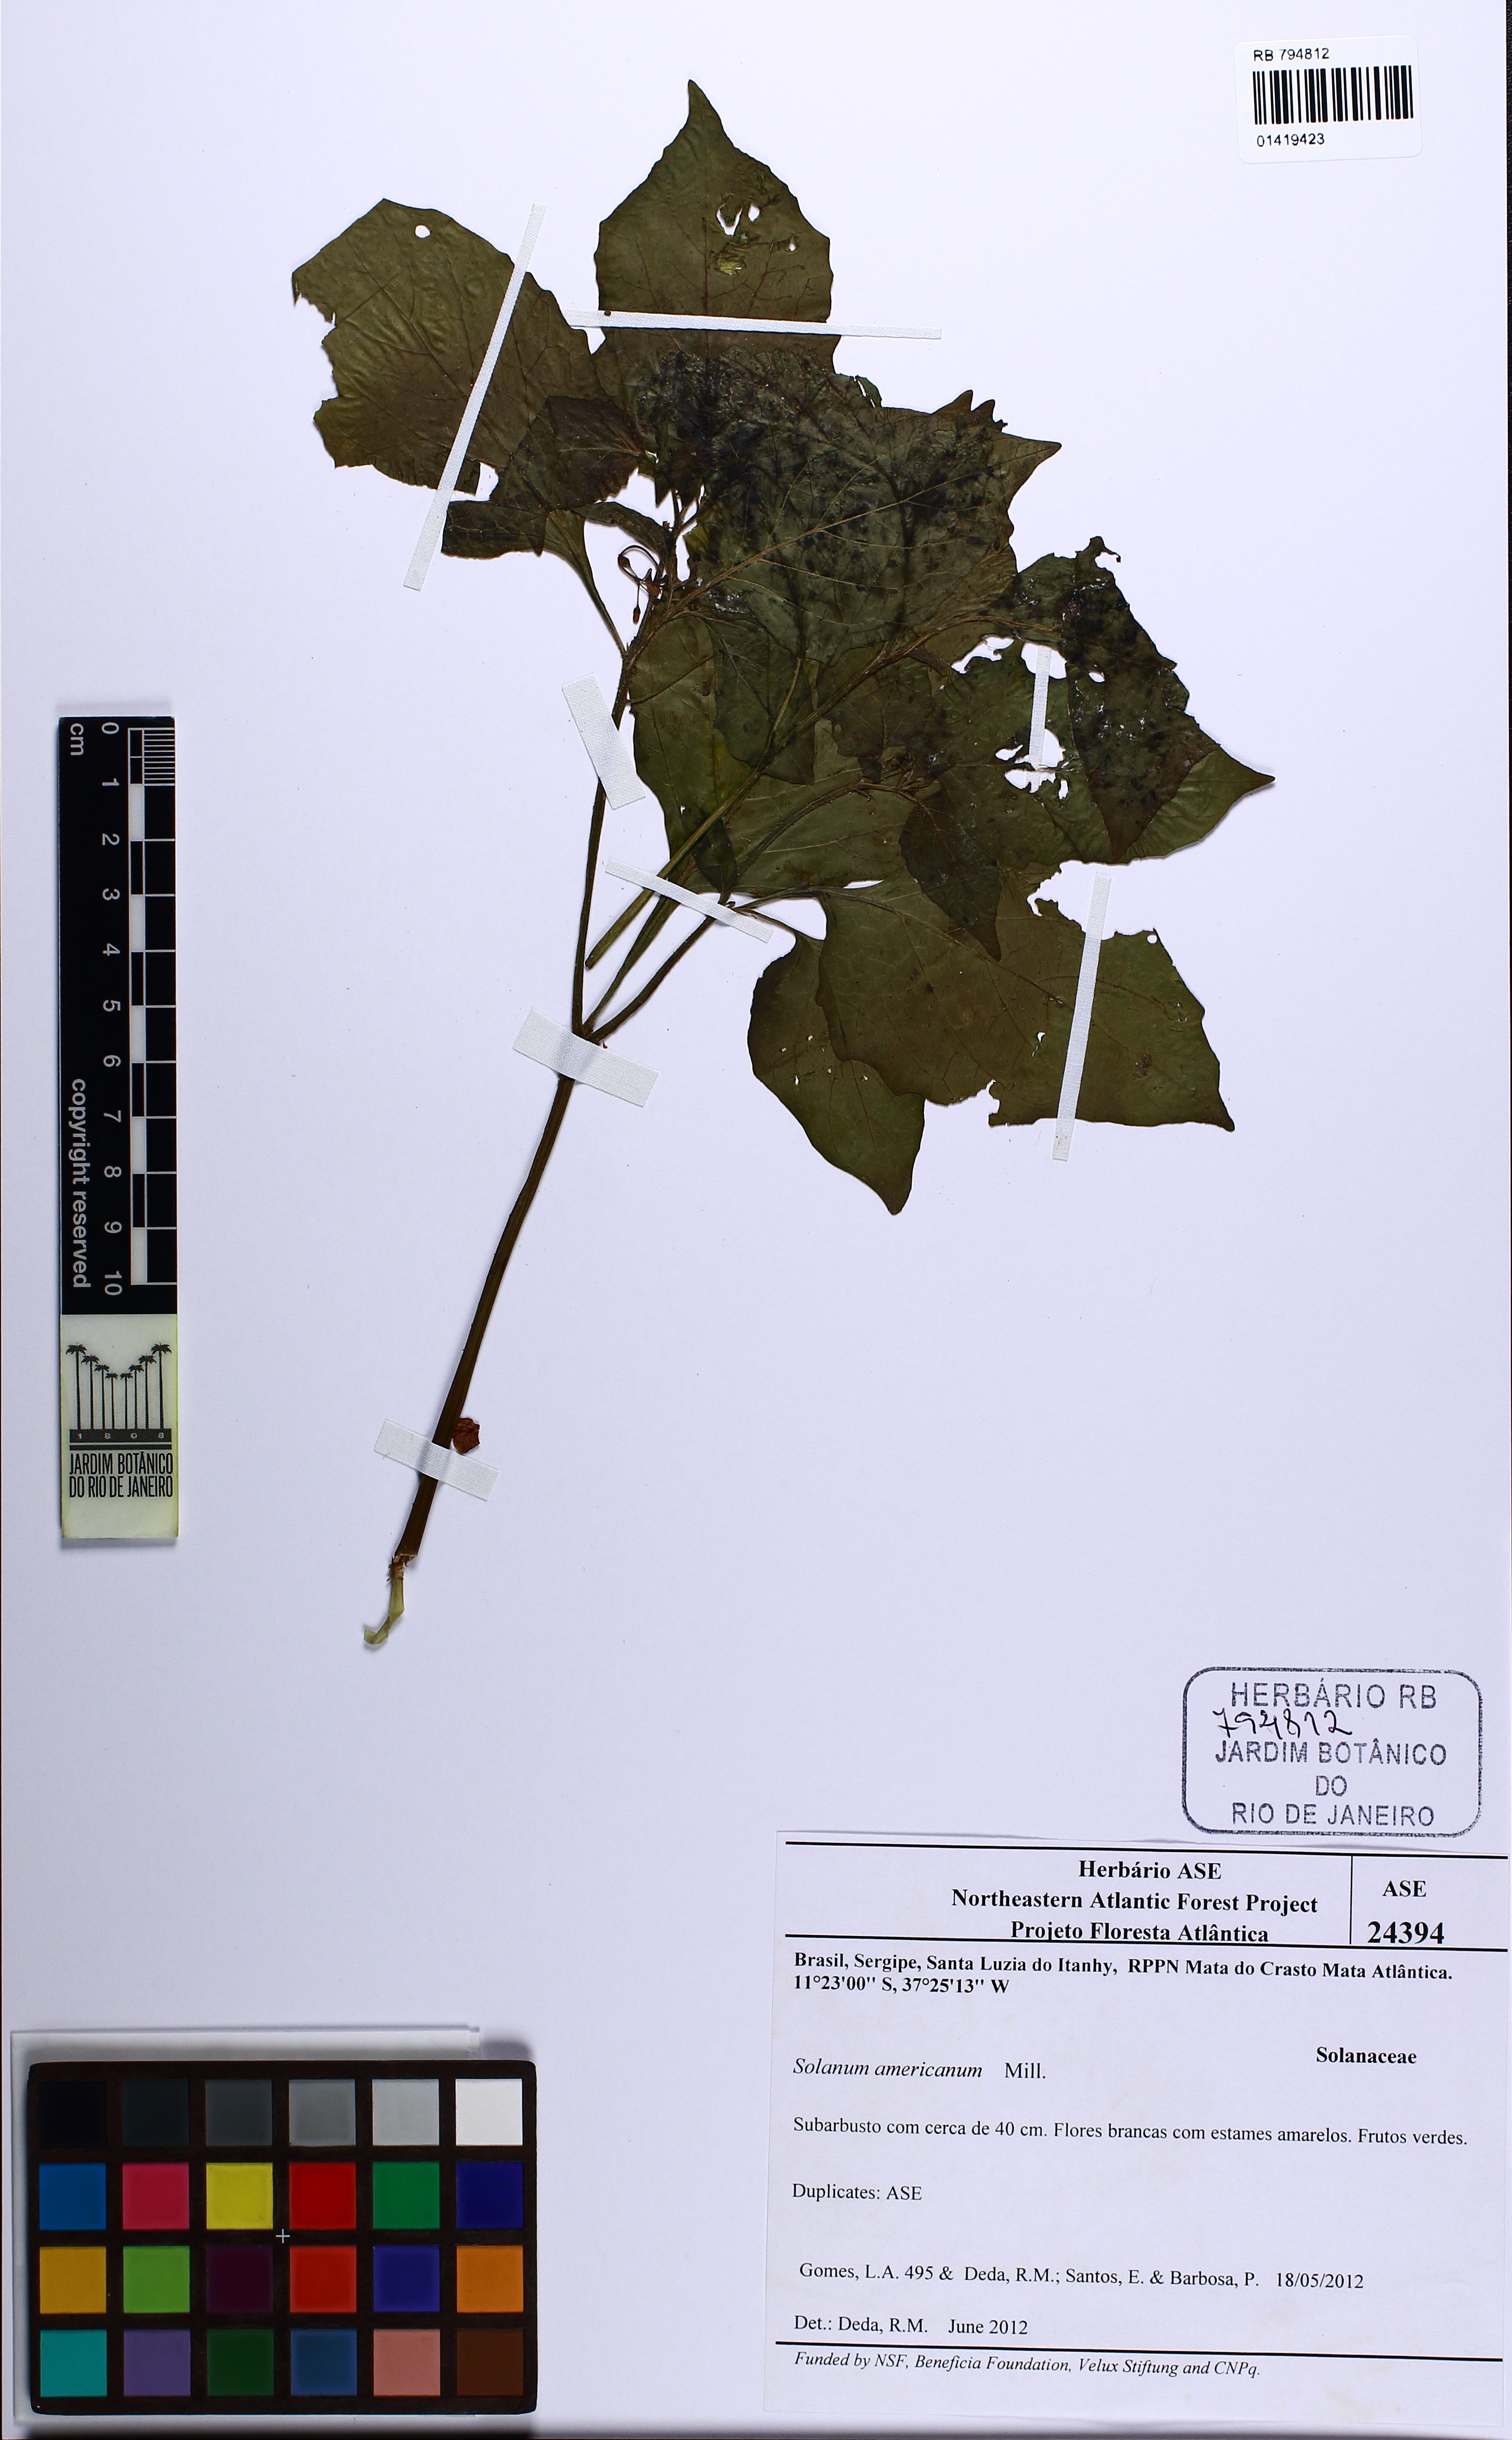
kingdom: Plantae
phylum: Tracheophyta
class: Magnoliopsida
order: Solanales
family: Solanaceae
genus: Solanum
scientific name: Solanum americanum
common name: American black nightshade
